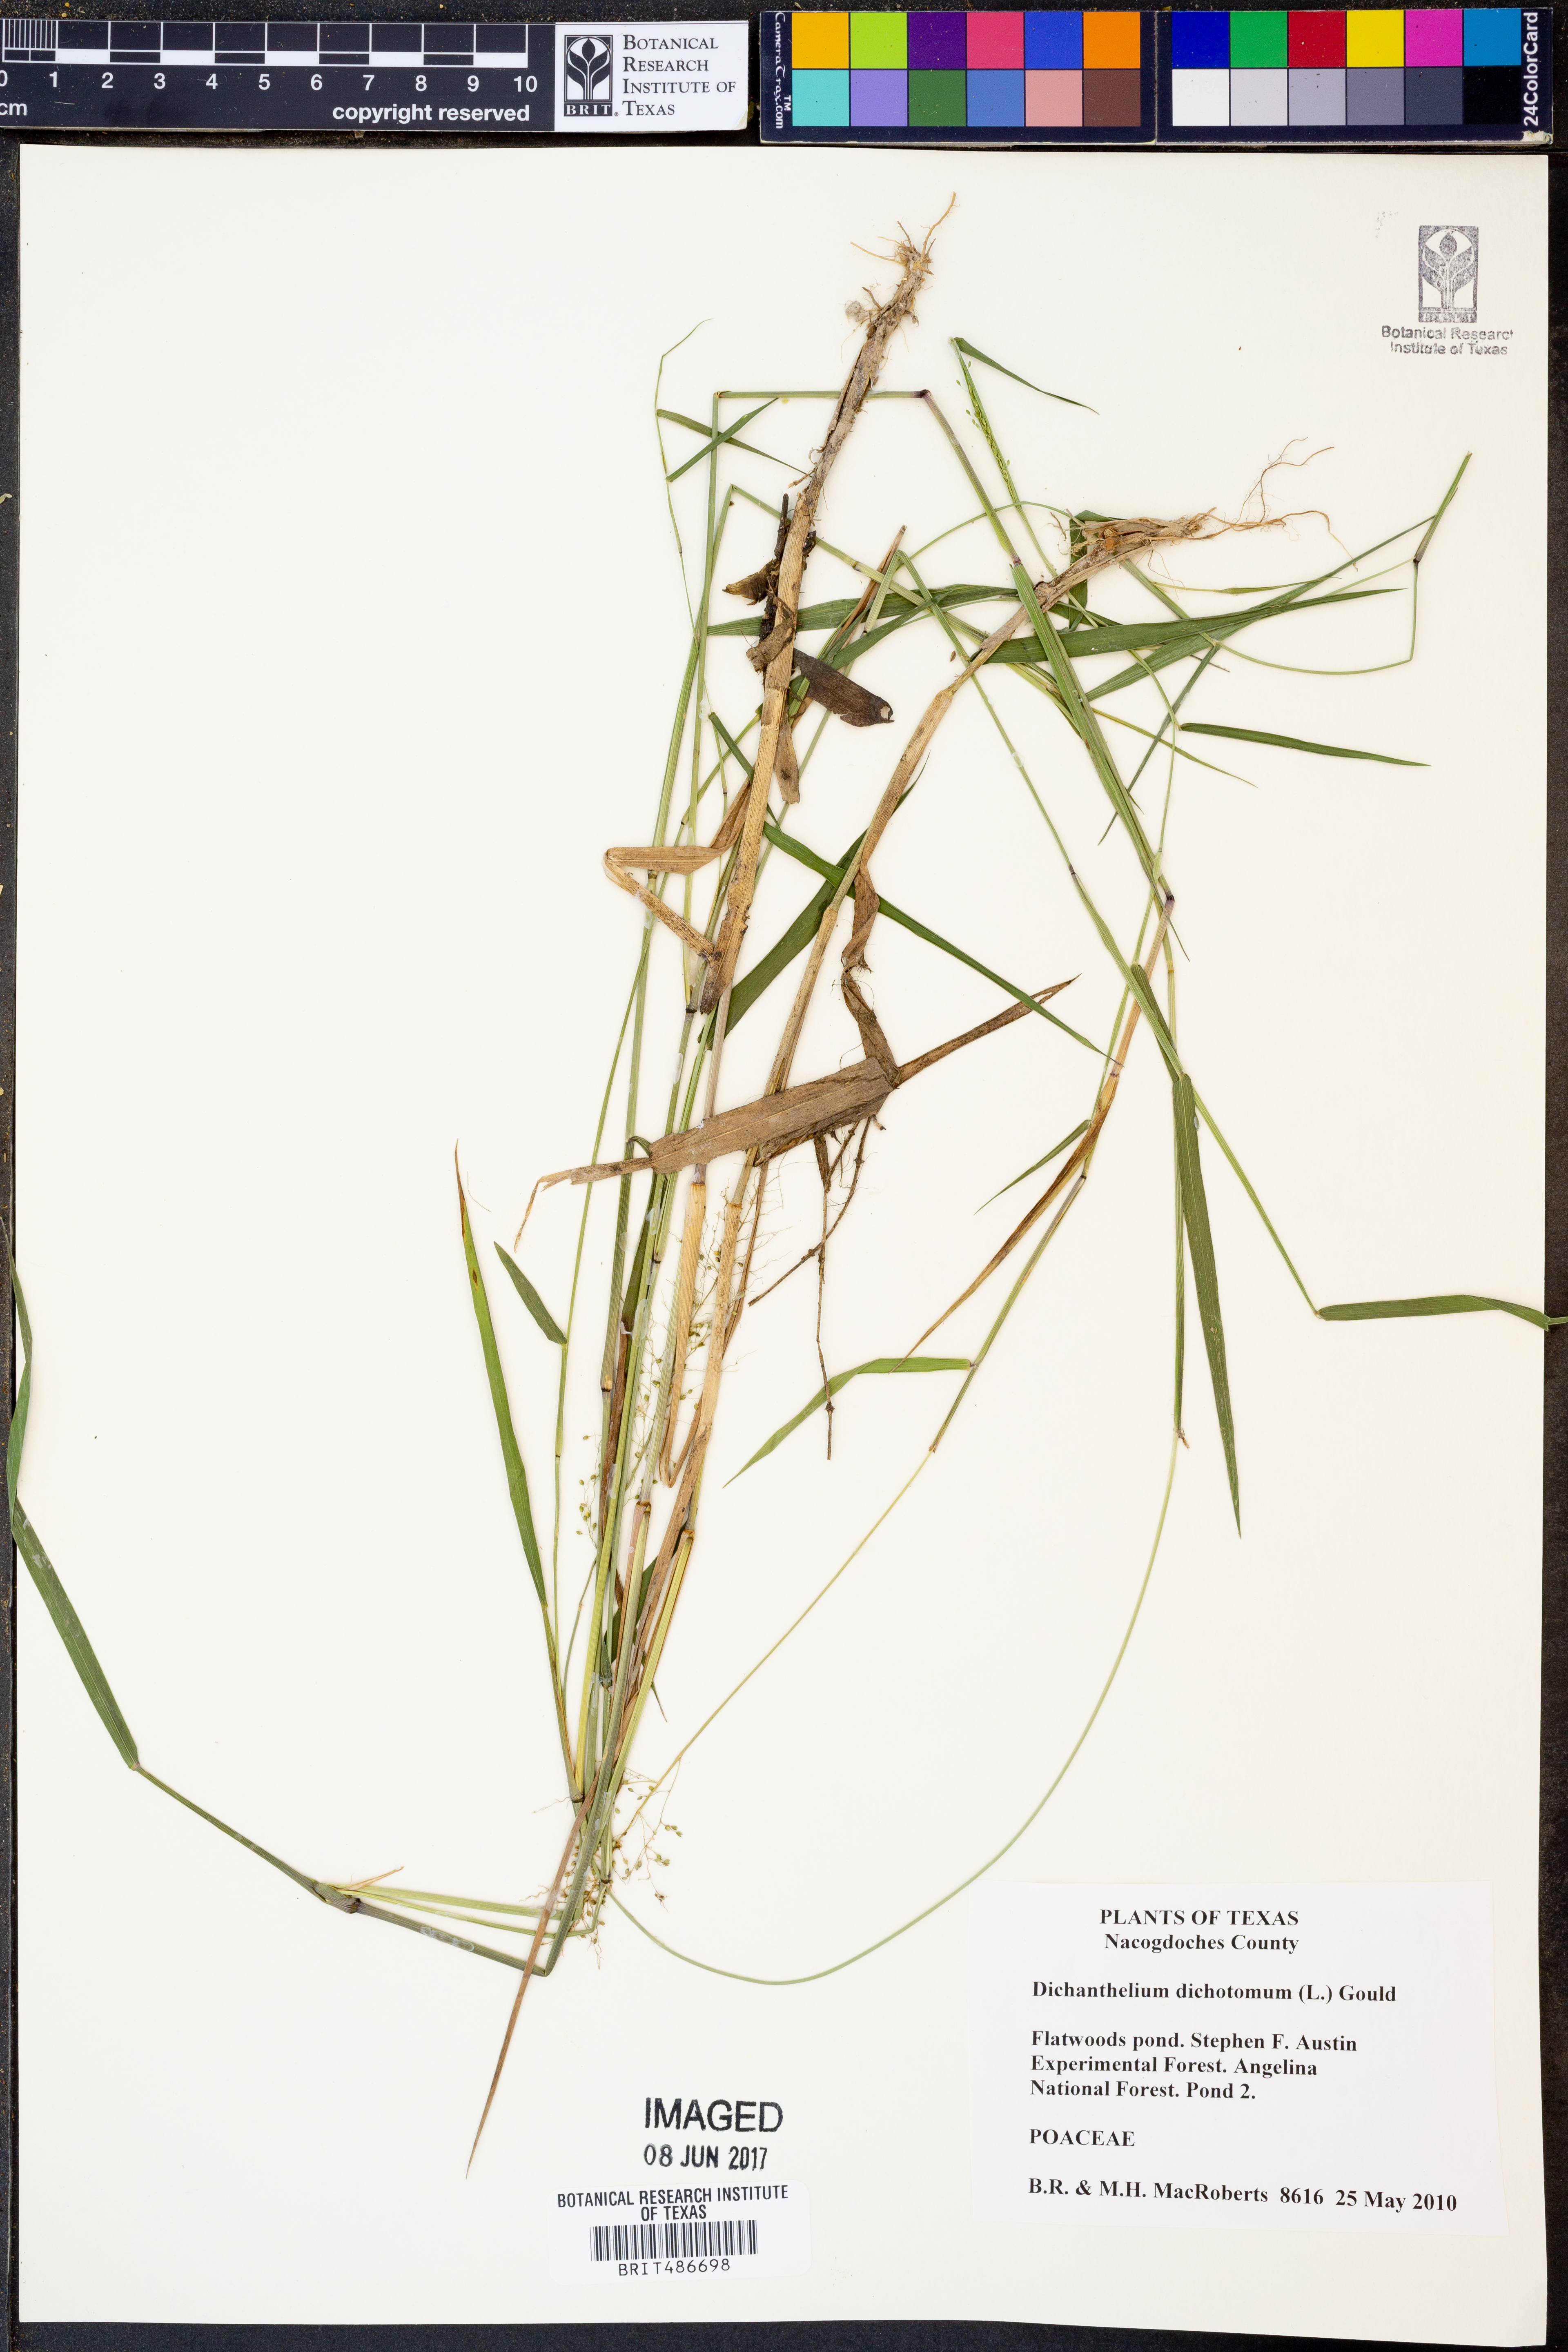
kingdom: Plantae
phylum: Tracheophyta
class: Liliopsida
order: Poales
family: Poaceae
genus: Dichanthelium
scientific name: Dichanthelium dichotomum
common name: Cypress panicgrass
